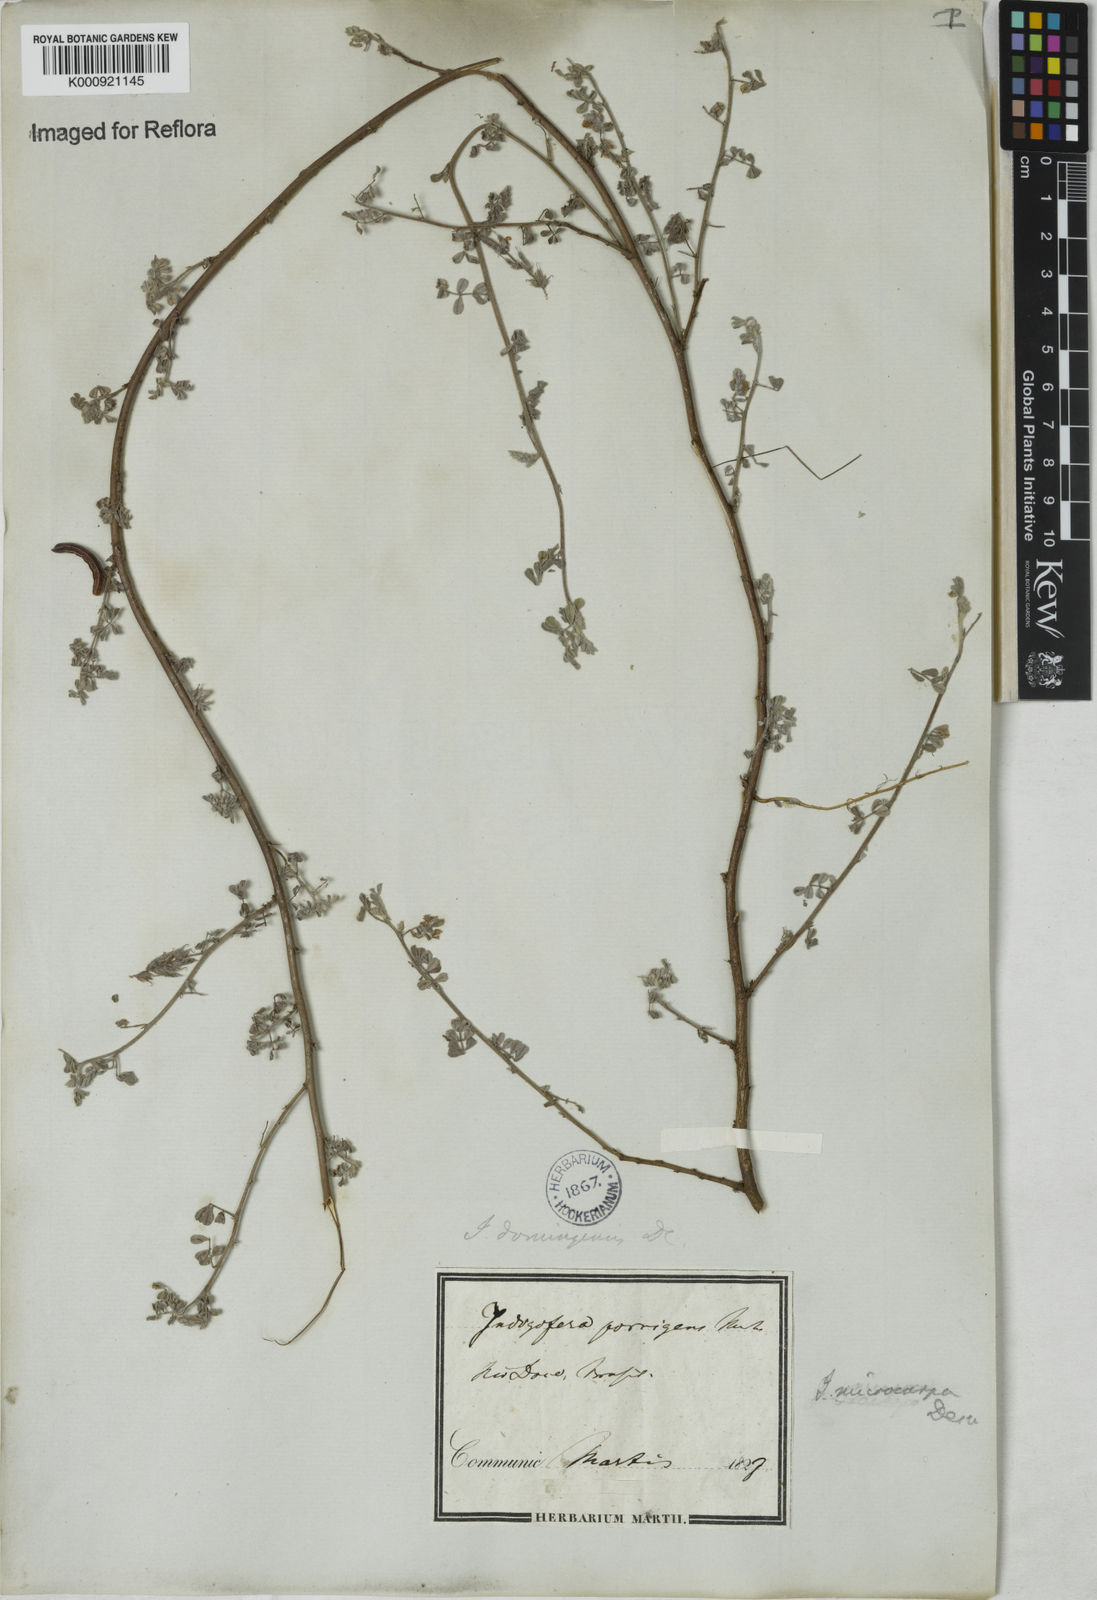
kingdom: Plantae
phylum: Tracheophyta
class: Magnoliopsida
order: Fabales
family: Fabaceae
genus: Indigofera
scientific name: Indigofera microcarpa
